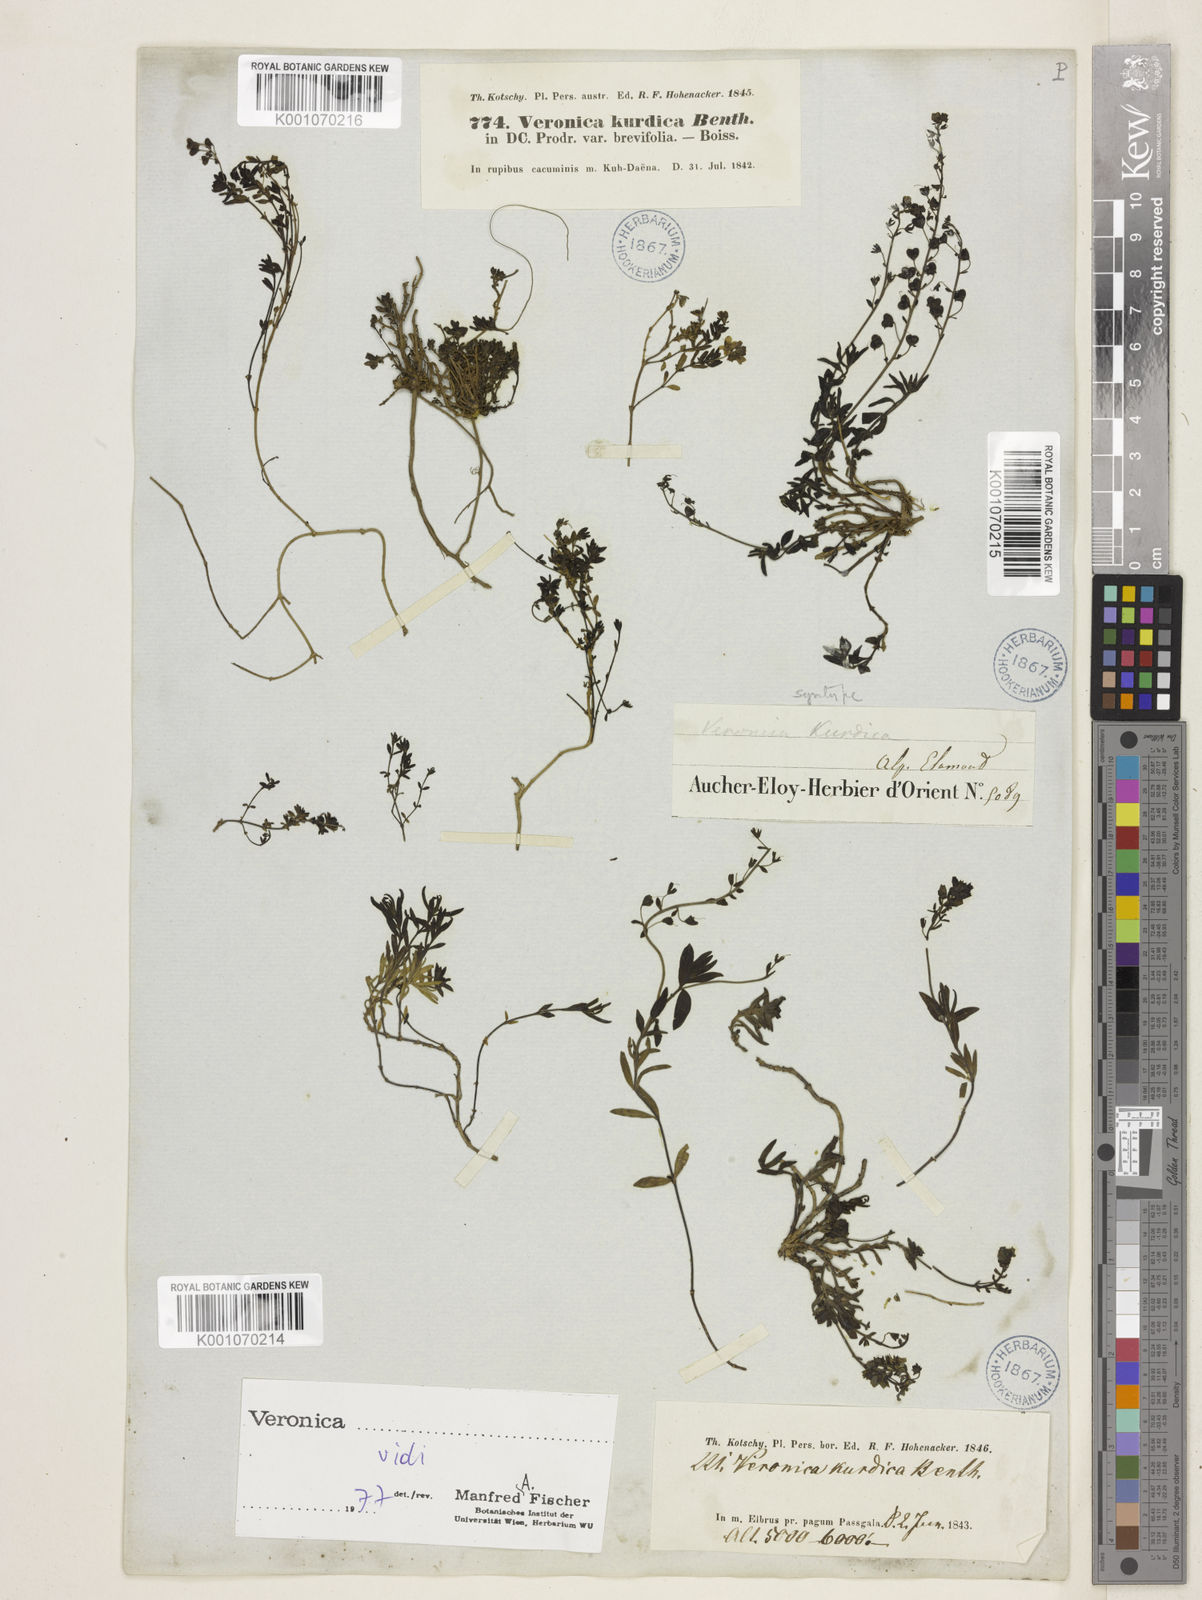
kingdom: Plantae
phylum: Tracheophyta
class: Magnoliopsida
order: Lamiales
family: Plantaginaceae
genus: Veronica
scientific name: Veronica orientalis
